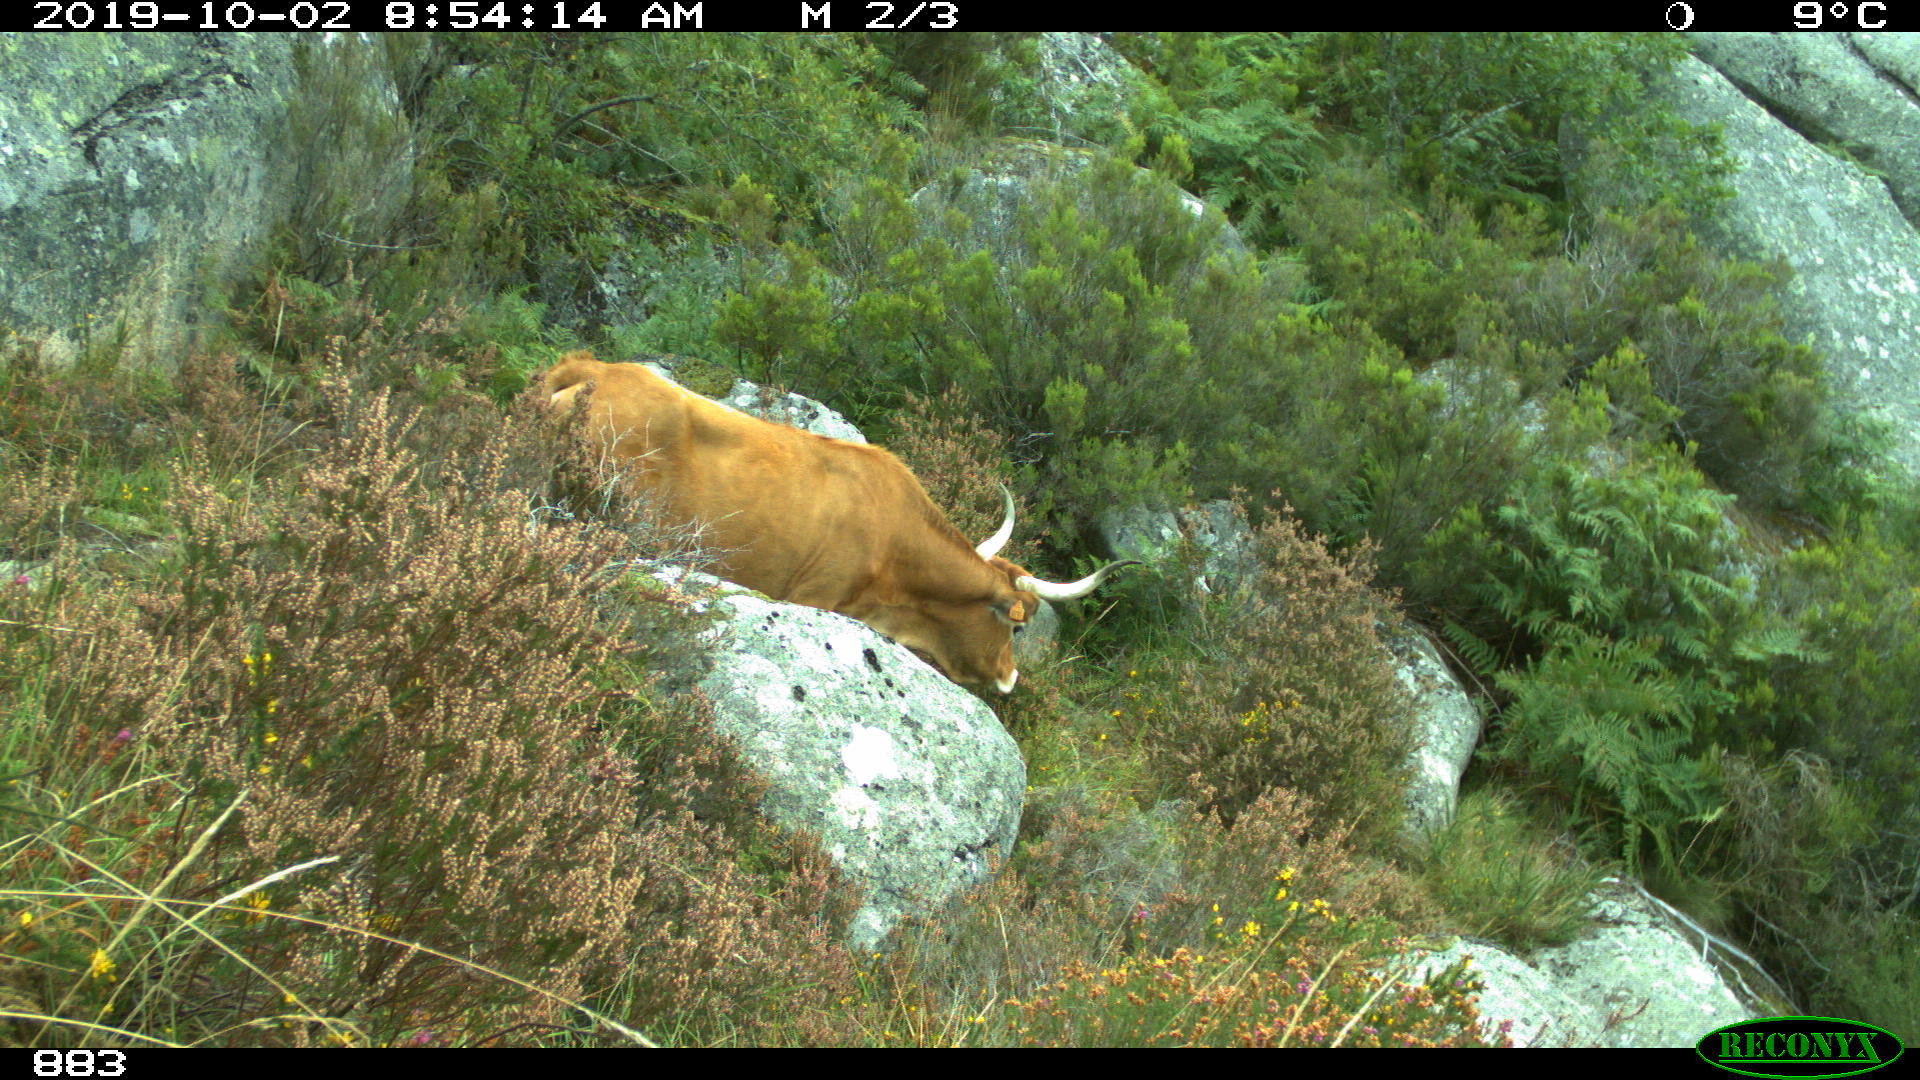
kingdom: Animalia
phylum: Chordata
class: Mammalia
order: Artiodactyla
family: Bovidae
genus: Bos
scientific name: Bos taurus
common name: Domesticated cattle
